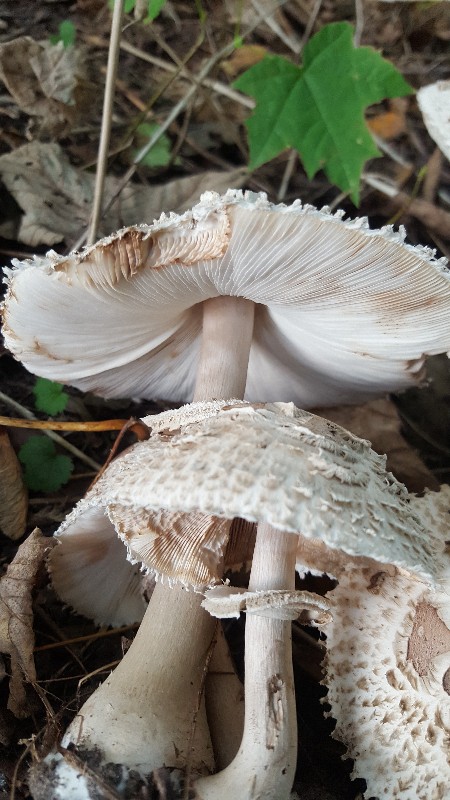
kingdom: Fungi
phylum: Basidiomycota
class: Agaricomycetes
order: Agaricales
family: Agaricaceae
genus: Chlorophyllum
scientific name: Chlorophyllum
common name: rabarberhat
